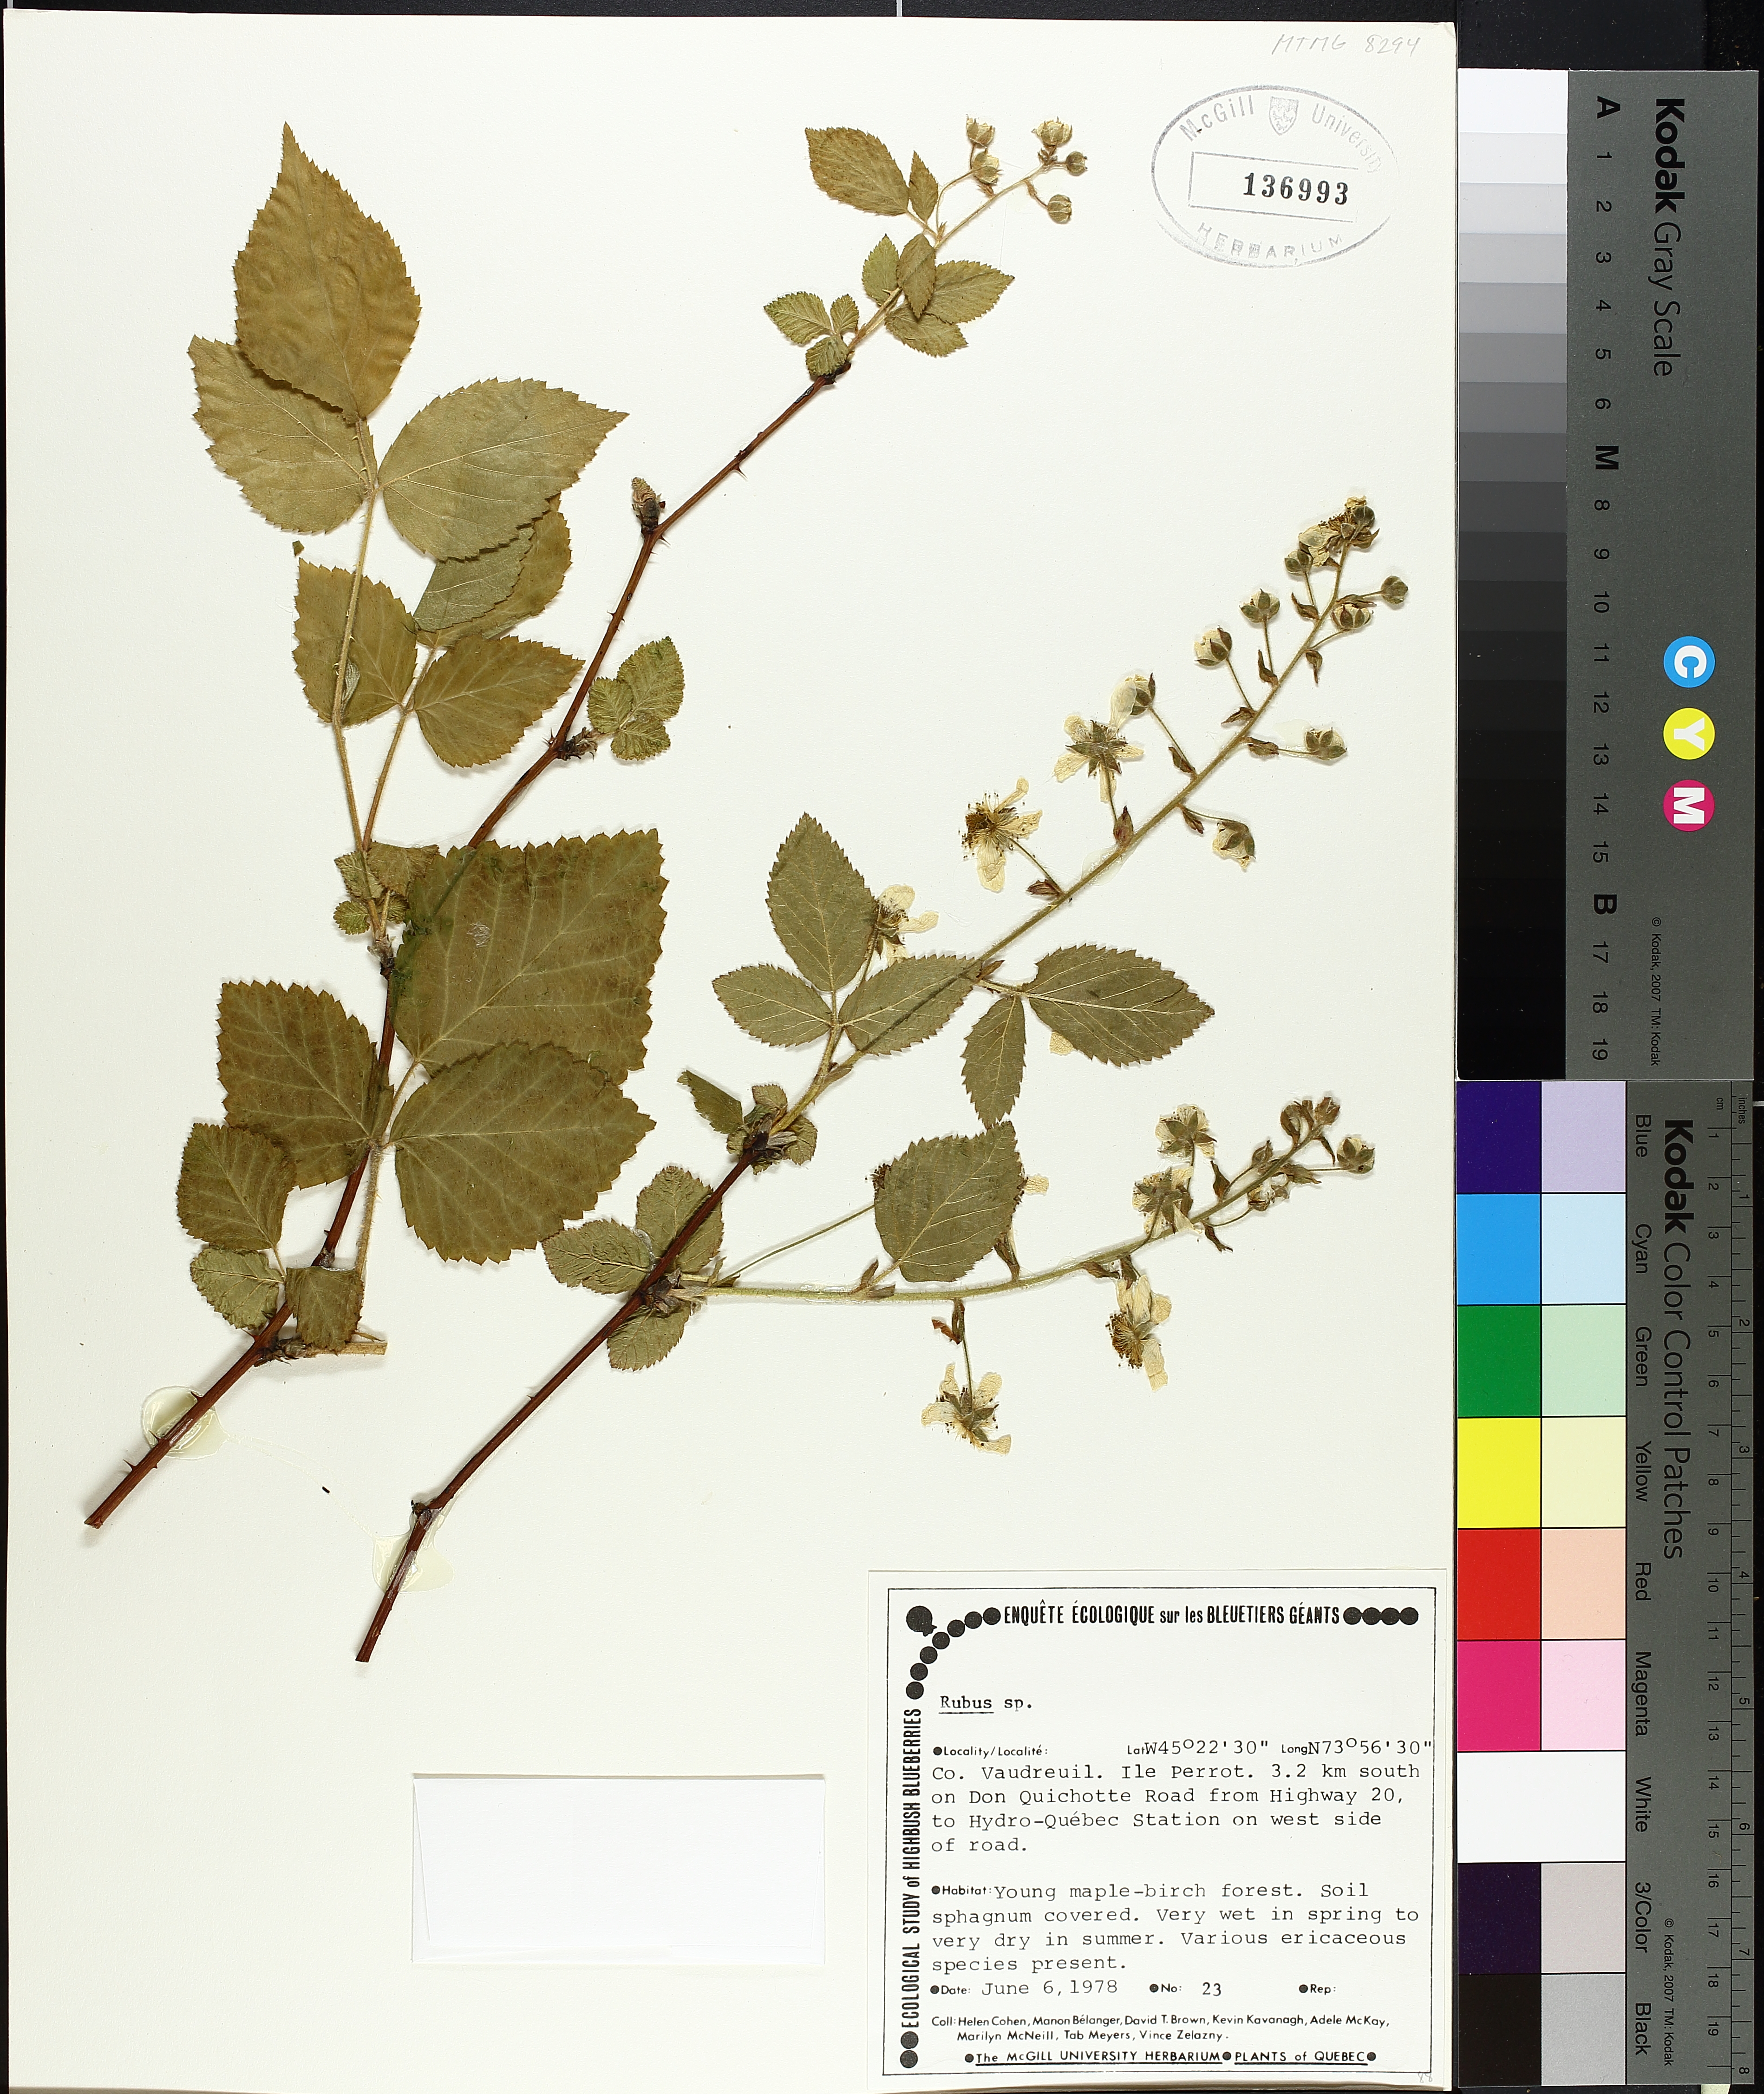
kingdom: Plantae
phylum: Tracheophyta
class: Magnoliopsida
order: Rosales
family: Rosaceae
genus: Rubus
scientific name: Rubus
